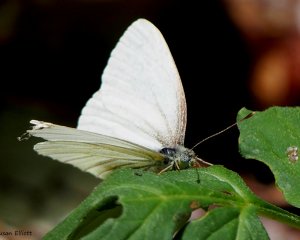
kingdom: Animalia
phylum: Arthropoda
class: Insecta
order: Lepidoptera
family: Pieridae
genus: Pieris
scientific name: Pieris oleracea
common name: Mustard White
